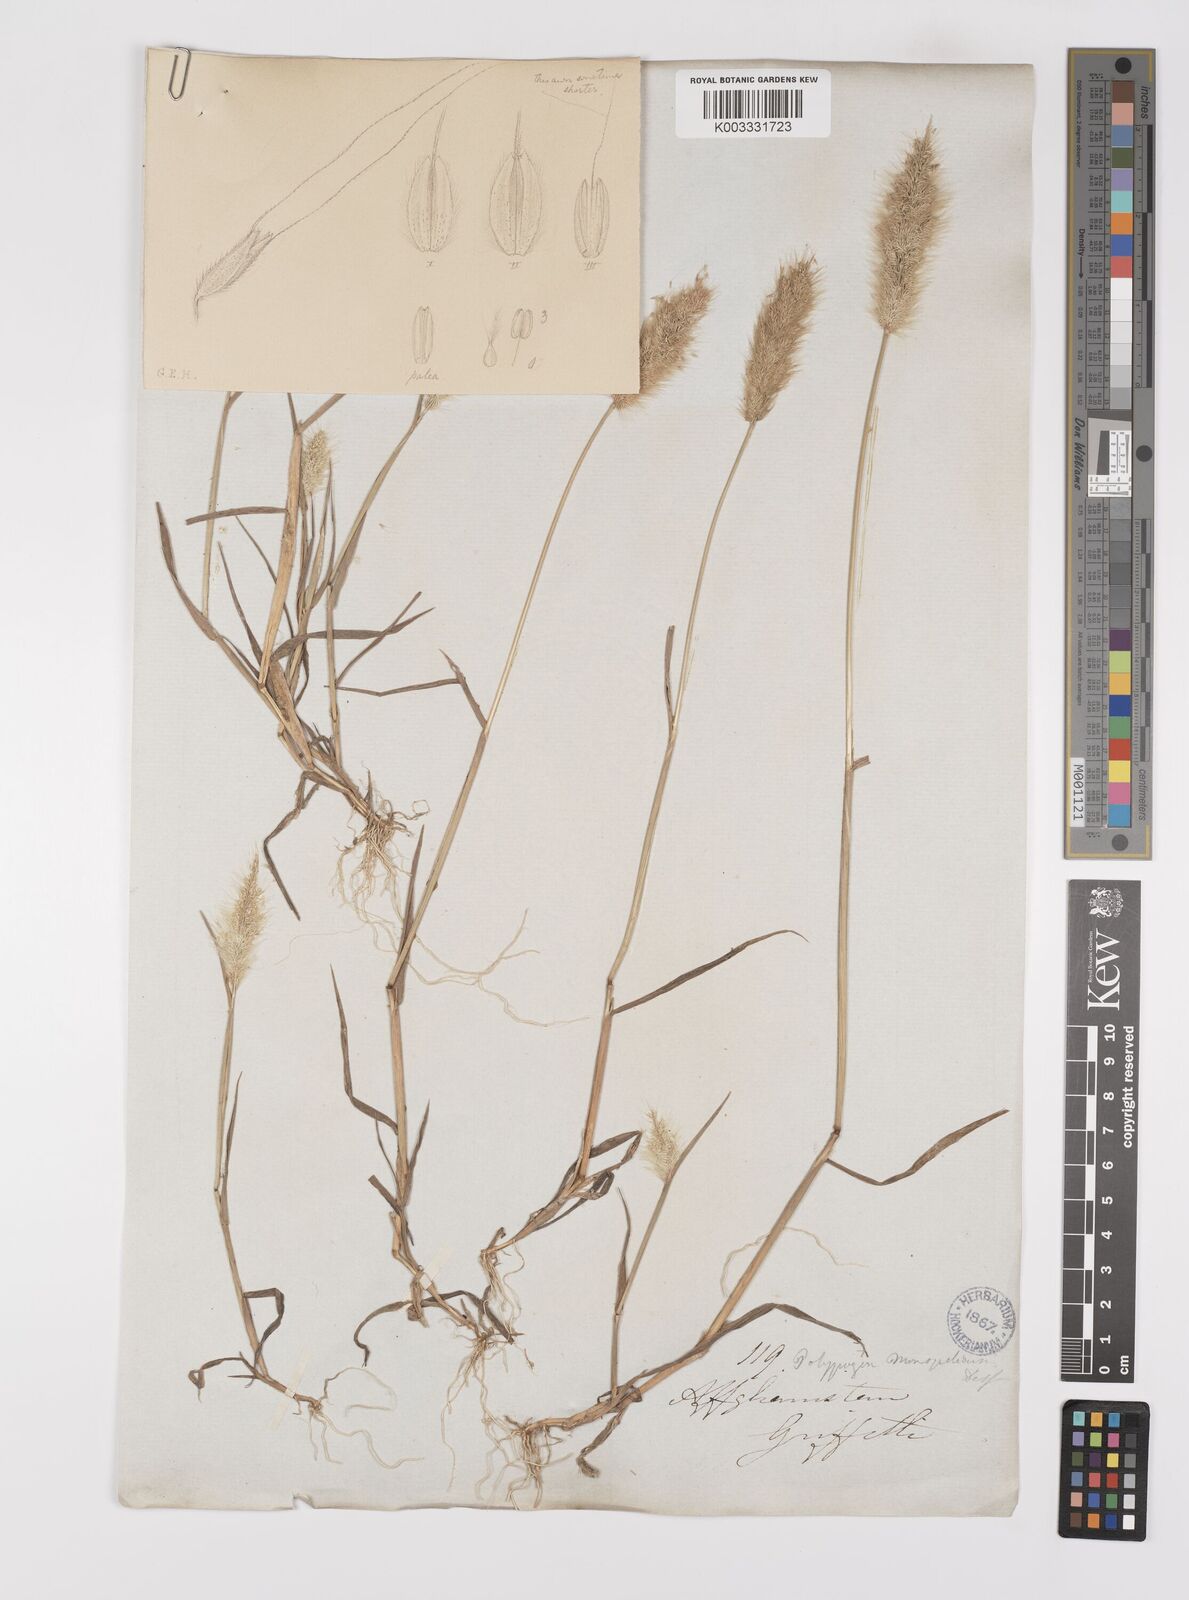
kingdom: Plantae
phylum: Tracheophyta
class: Liliopsida
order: Poales
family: Poaceae
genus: Polypogon
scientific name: Polypogon monspeliensis
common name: Annual rabbitsfoot grass
